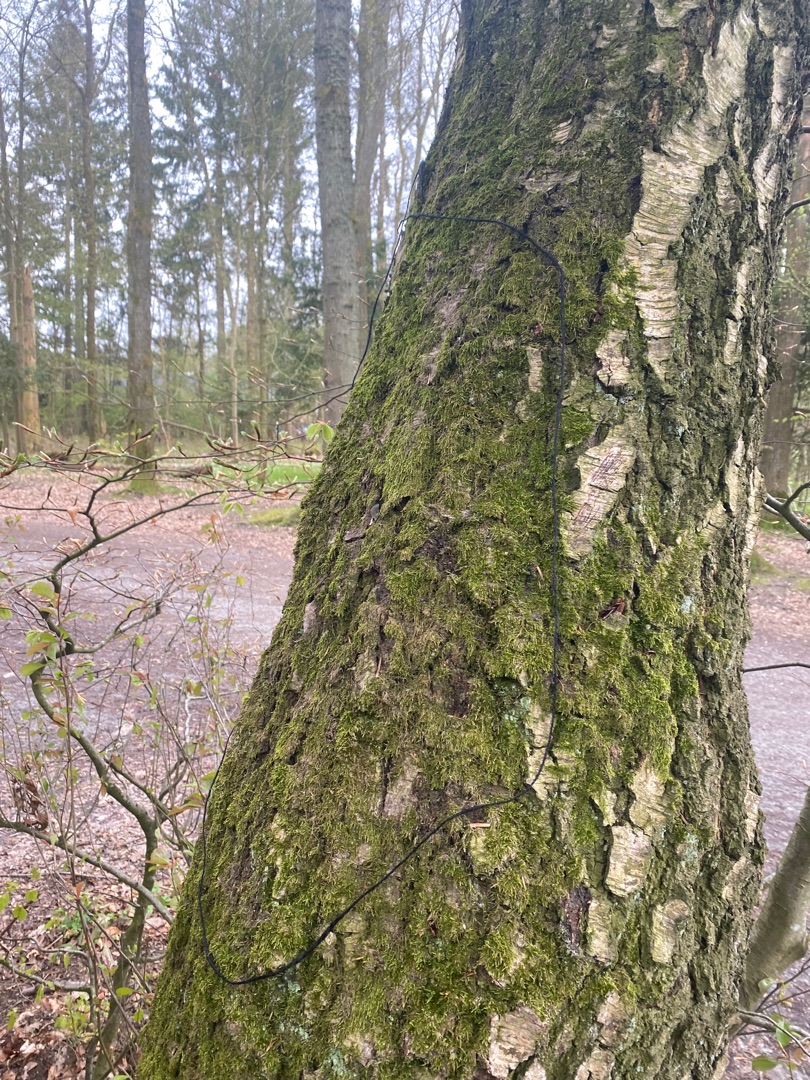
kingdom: Plantae
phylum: Bryophyta
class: Bryopsida
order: Hypnales
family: Hypnaceae
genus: Hypnum
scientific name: Hypnum
